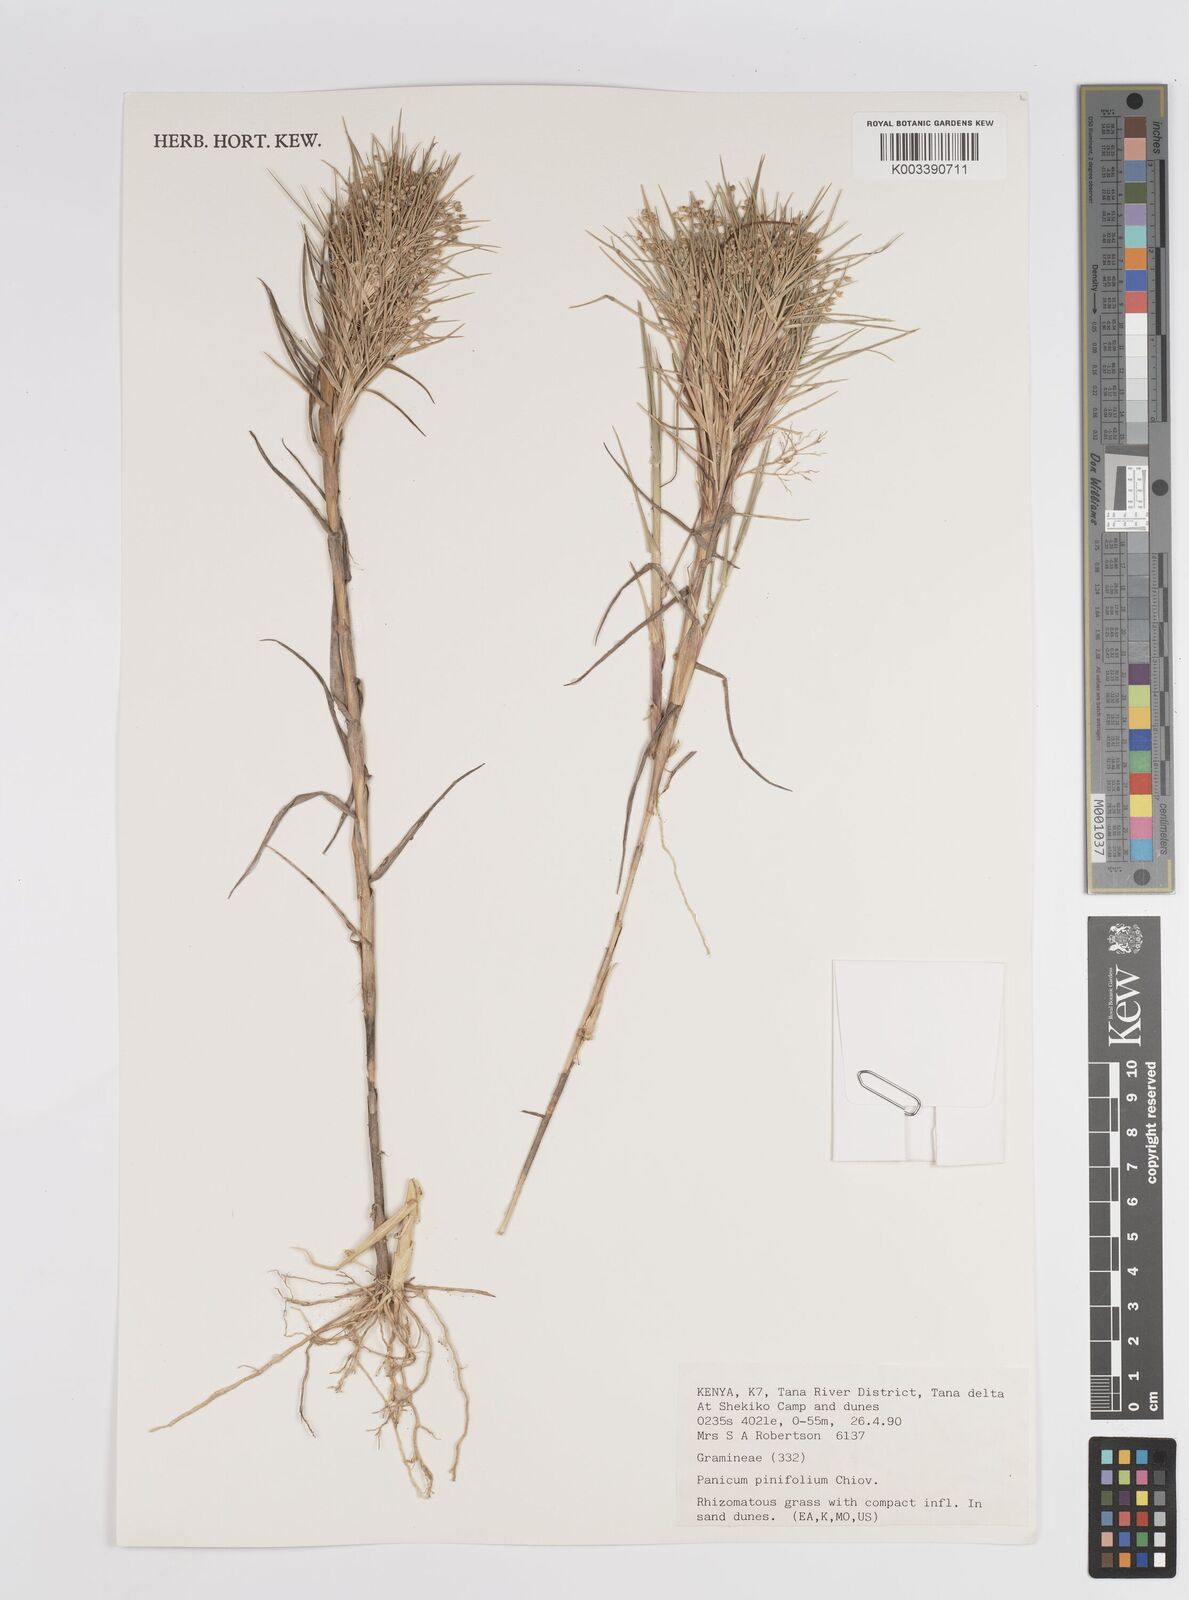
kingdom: Plantae
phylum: Tracheophyta
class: Liliopsida
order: Poales
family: Poaceae
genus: Panicum
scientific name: Panicum pinifolium
